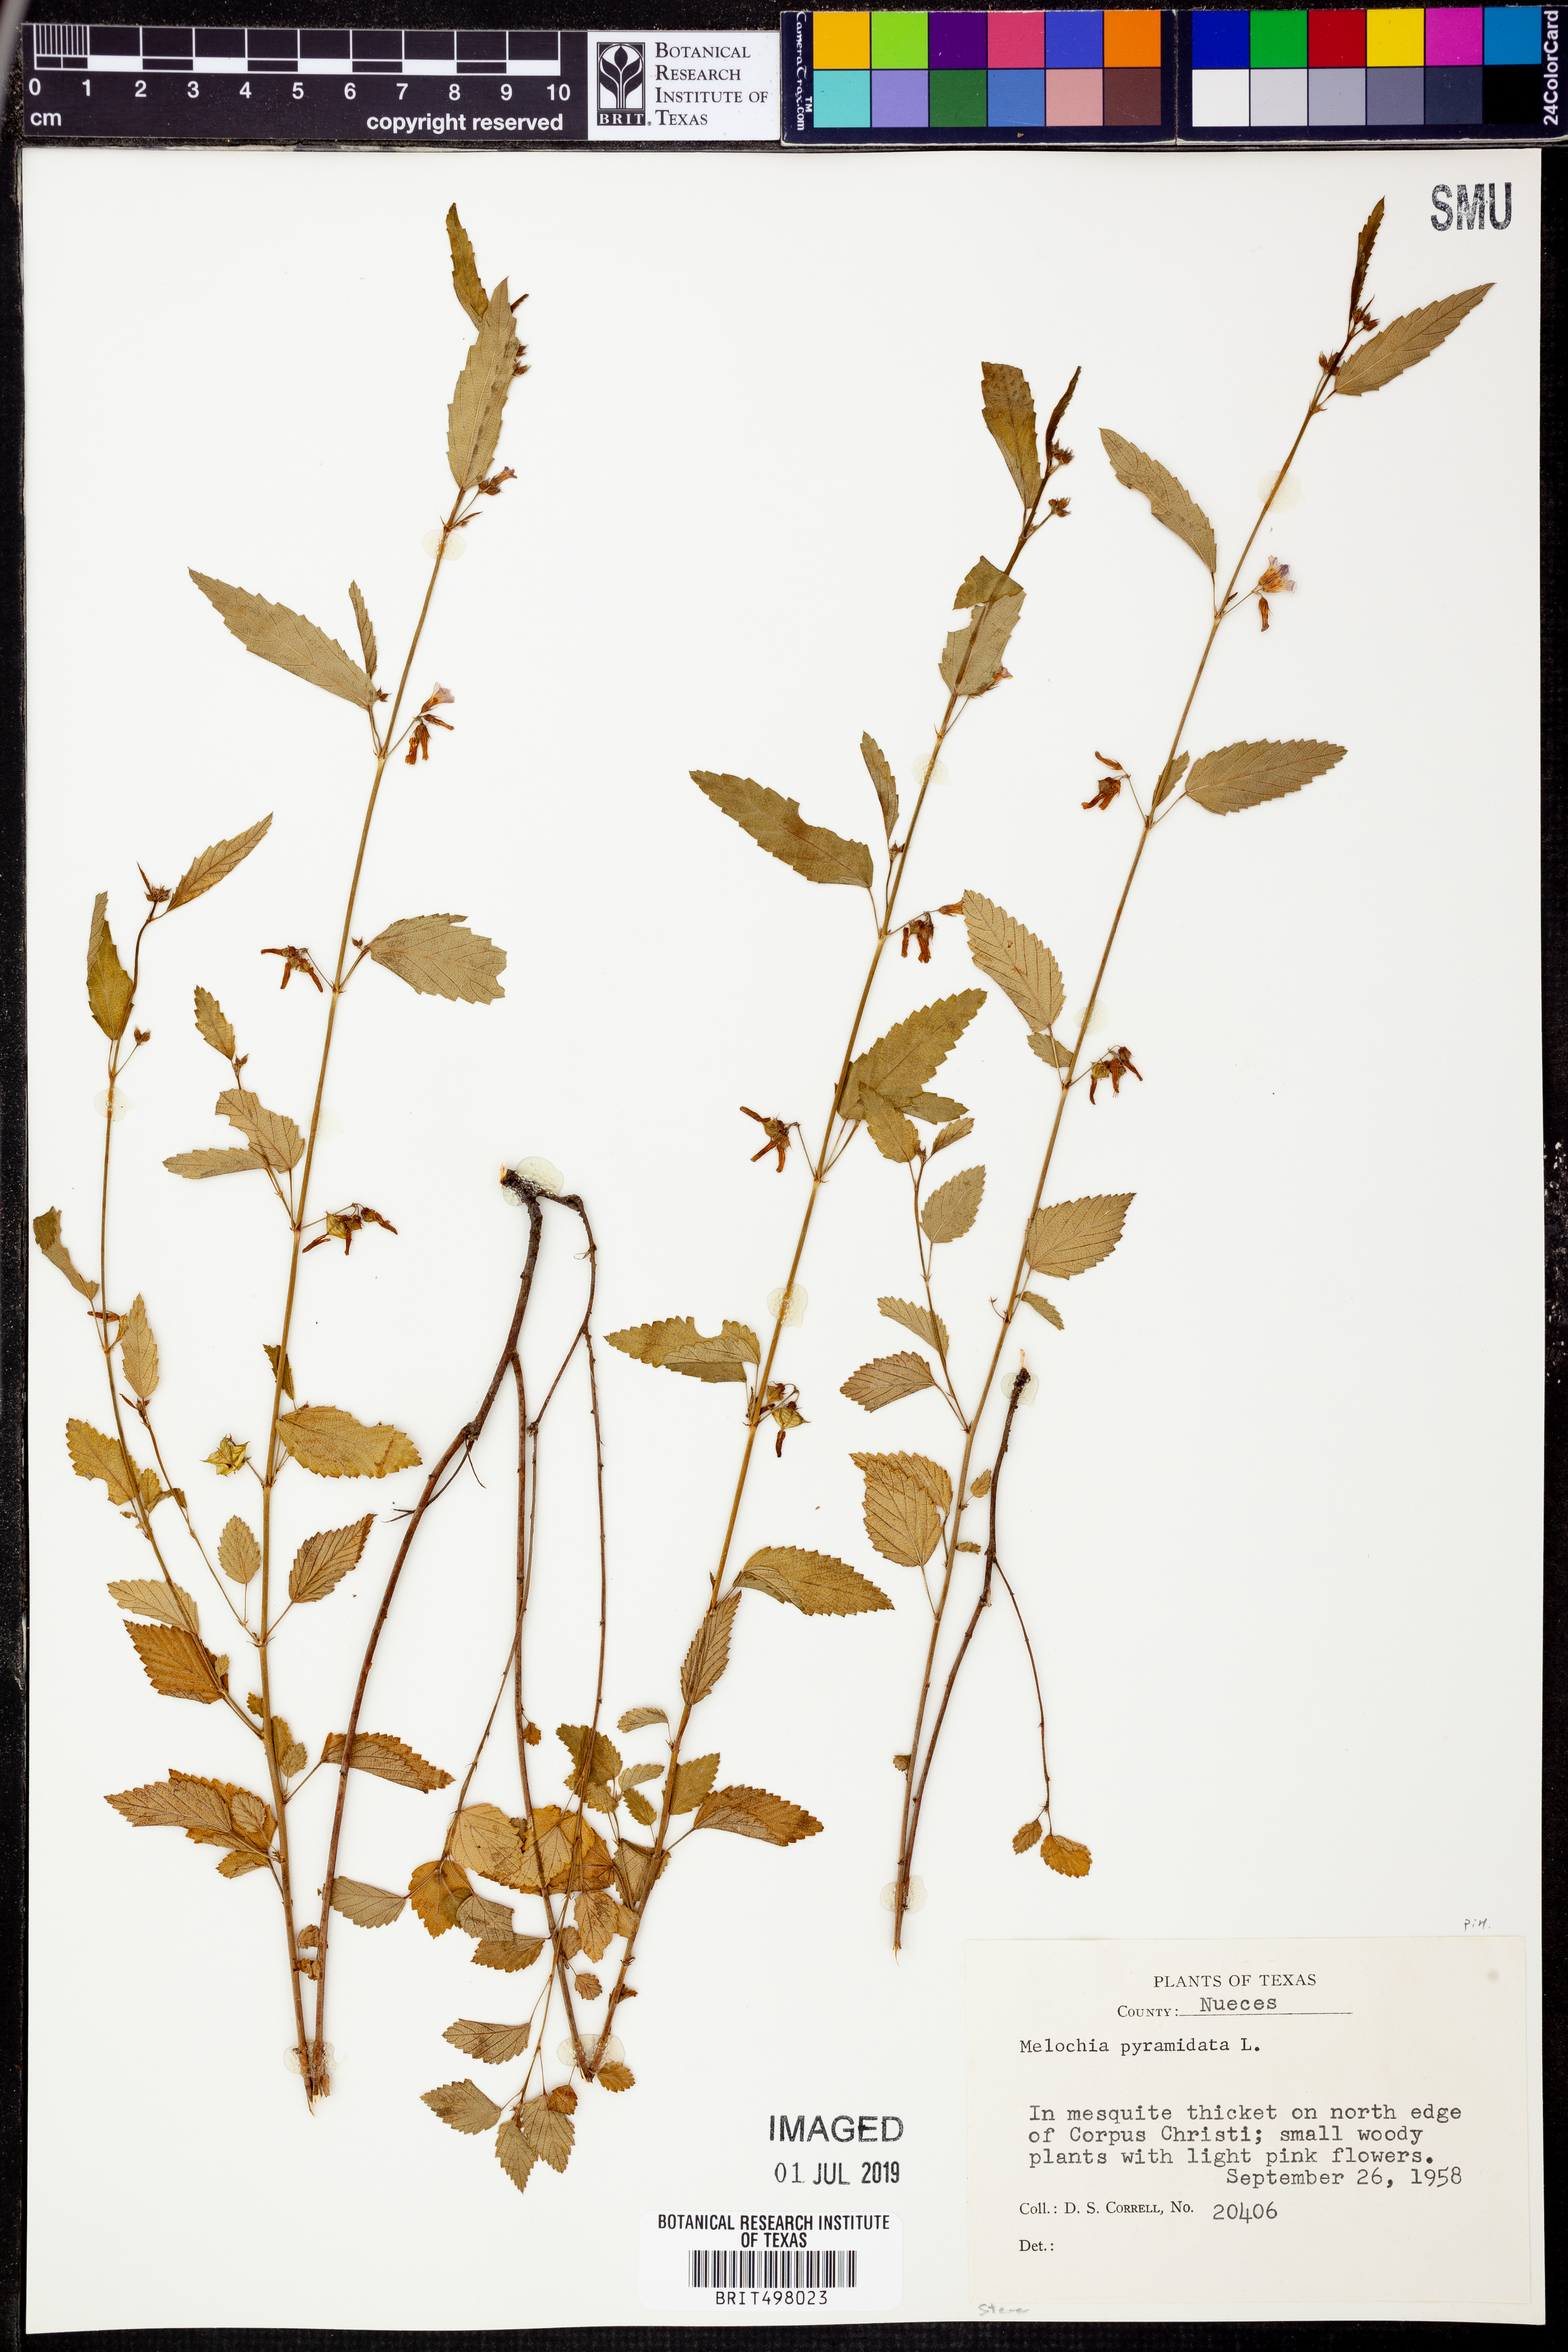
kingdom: Plantae
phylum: Tracheophyta
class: Magnoliopsida
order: Malvales
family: Malvaceae
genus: Melochia
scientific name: Melochia pyramidata
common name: Pyramidflower
